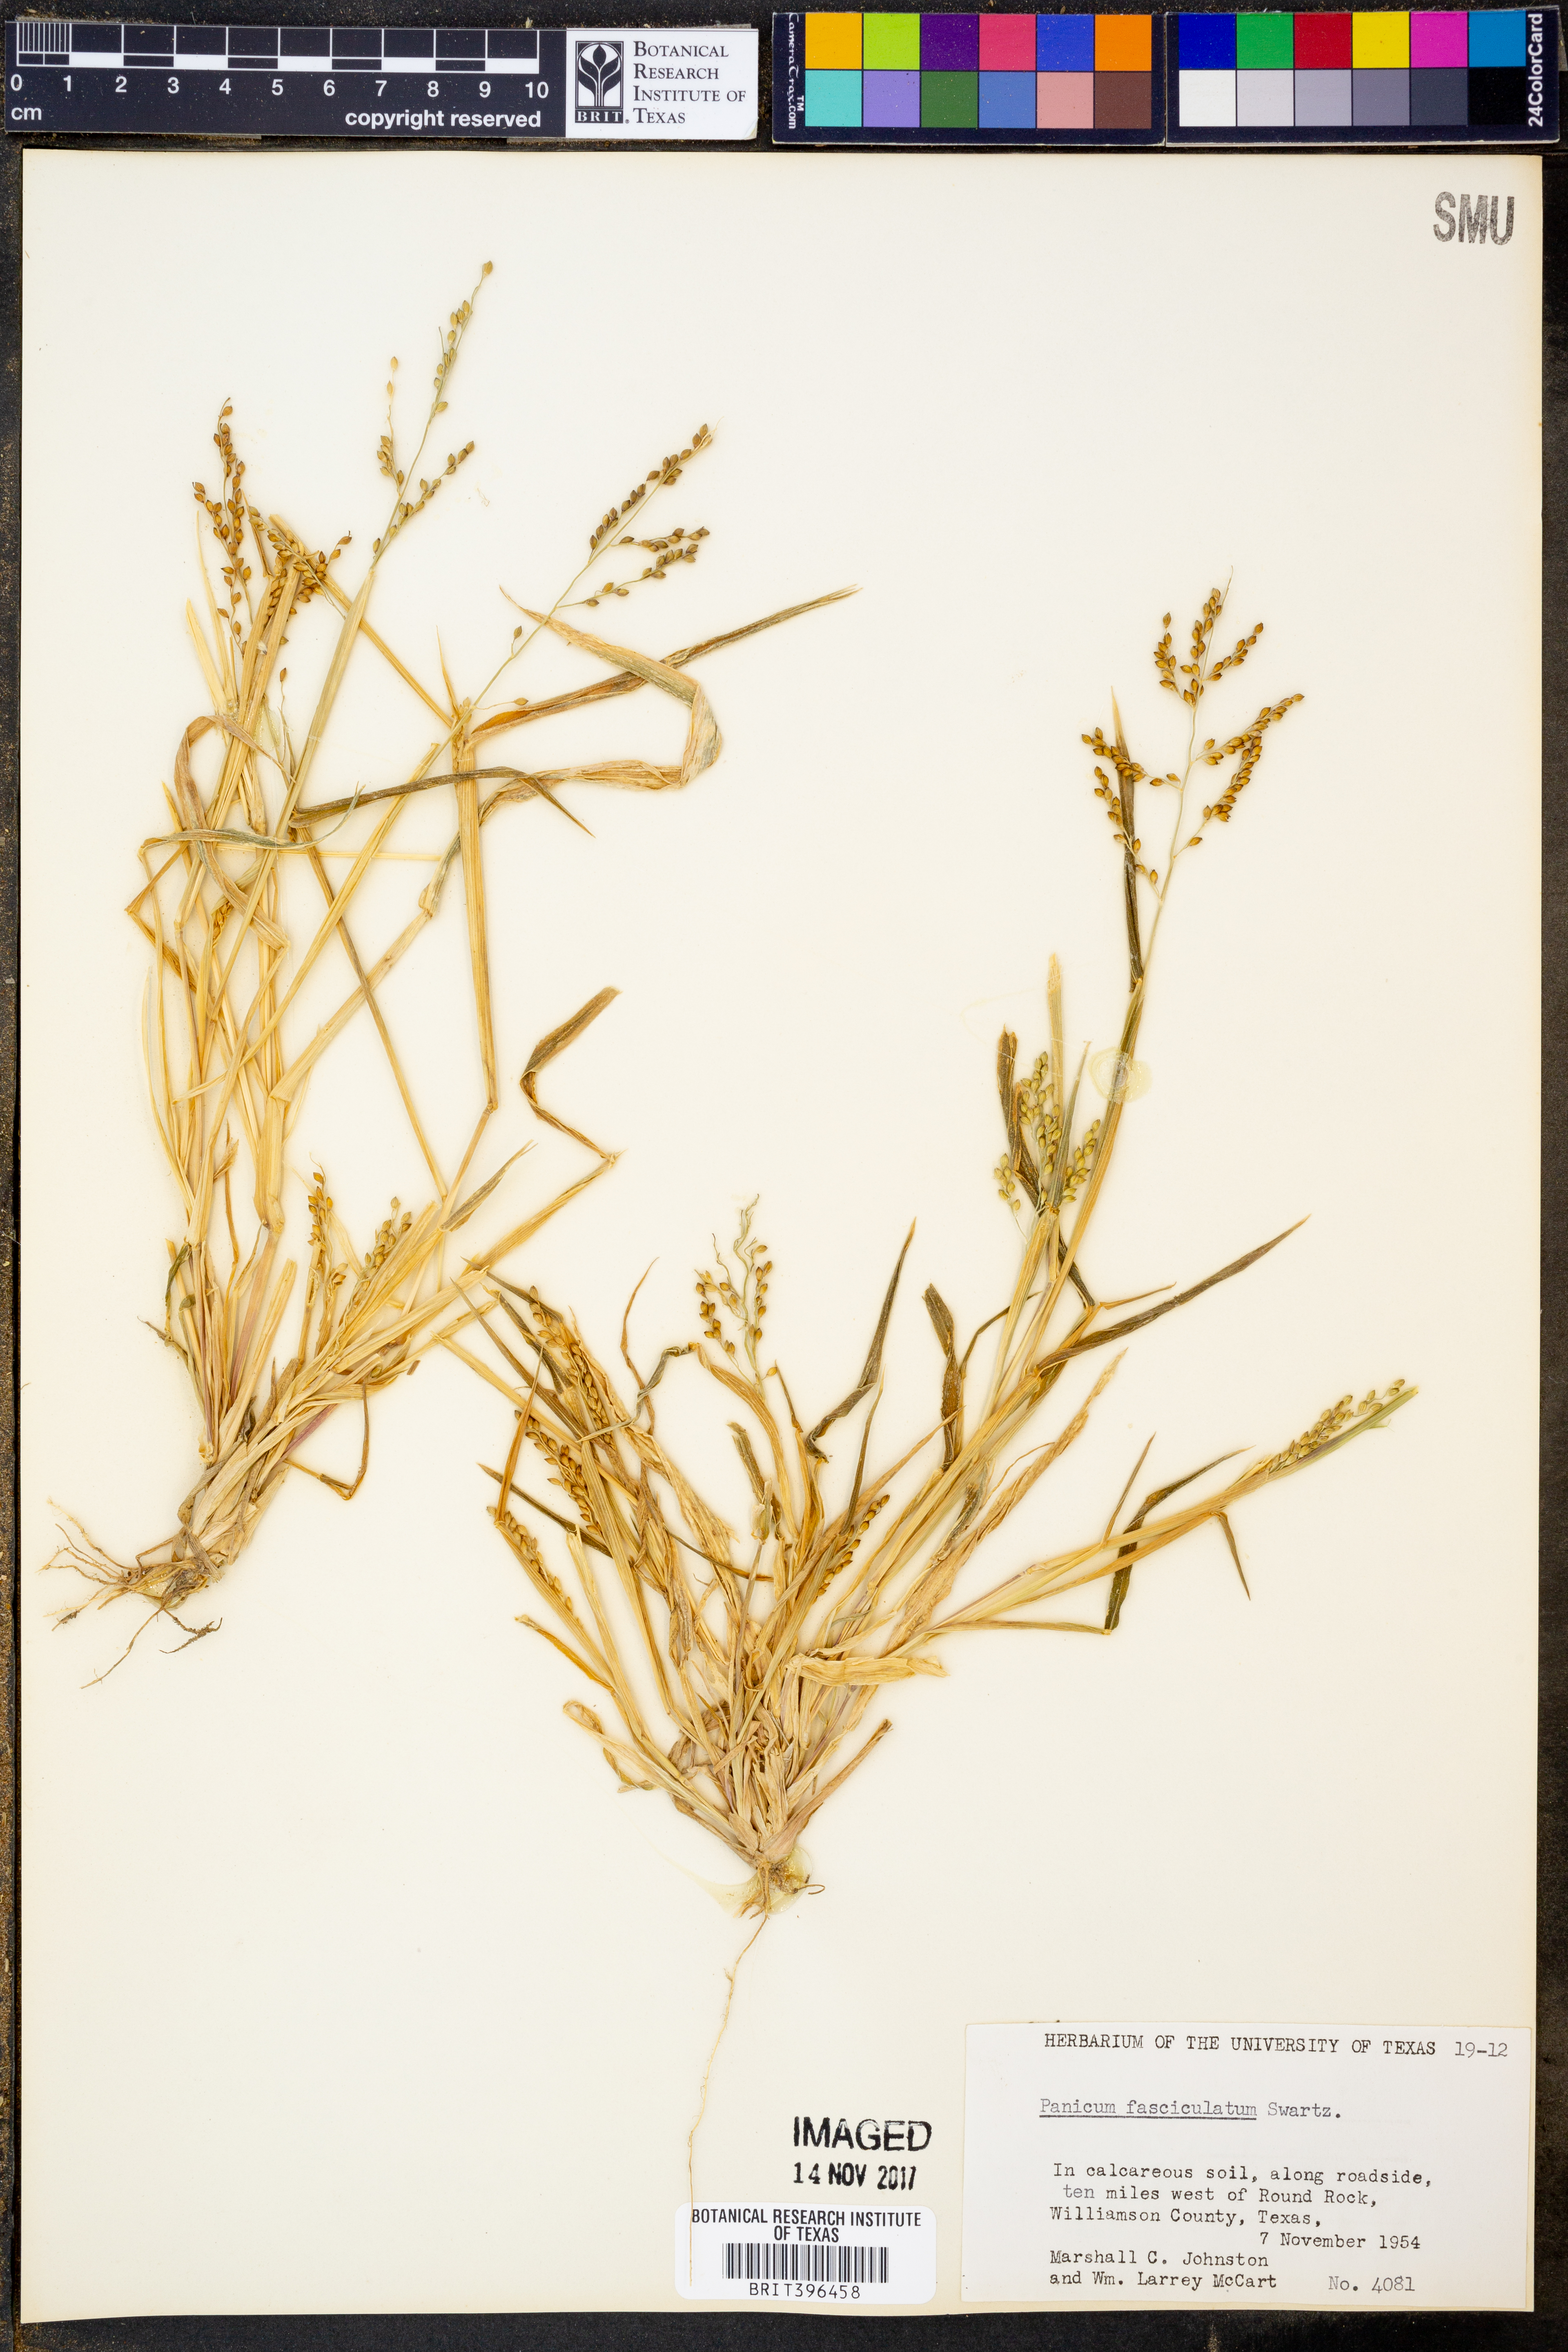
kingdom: Plantae
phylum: Tracheophyta
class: Liliopsida
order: Poales
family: Poaceae
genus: Urochloa
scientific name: Urochloa fusca
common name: Browntop signal grass
